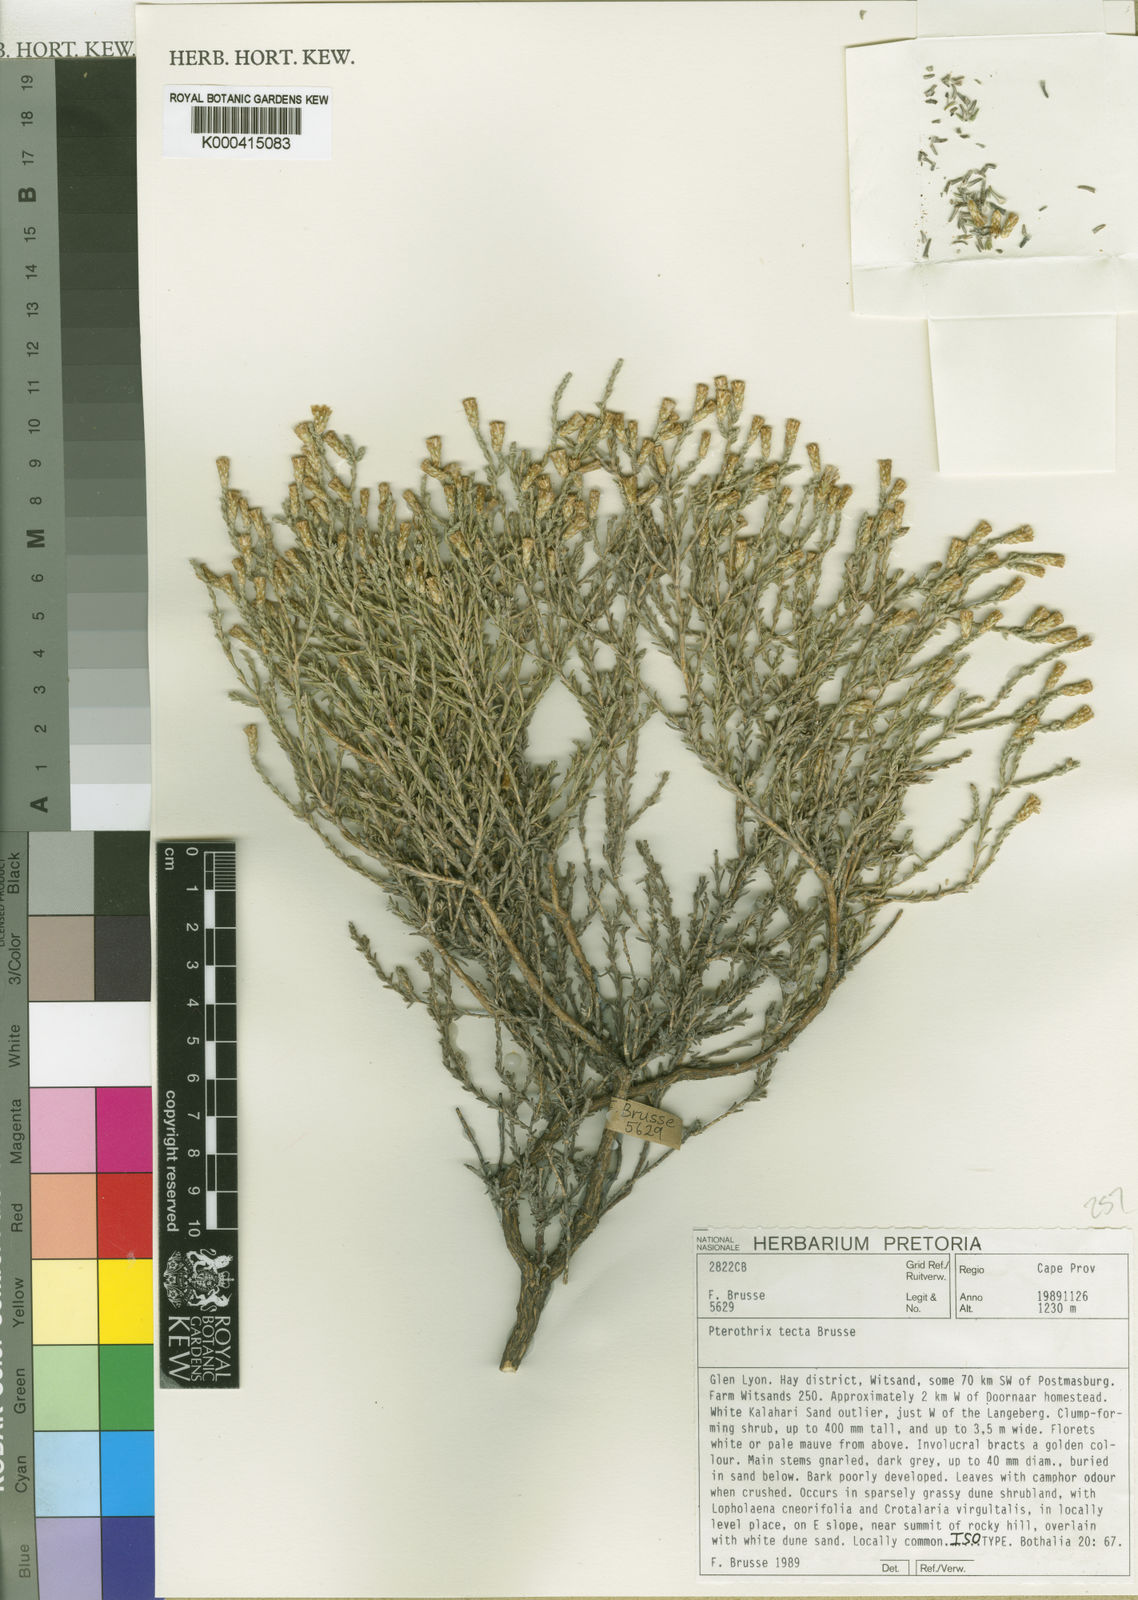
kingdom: Plantae
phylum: Tracheophyta
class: Magnoliopsida
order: Asterales
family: Asteraceae
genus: Amphiglossa
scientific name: Amphiglossa tecta
